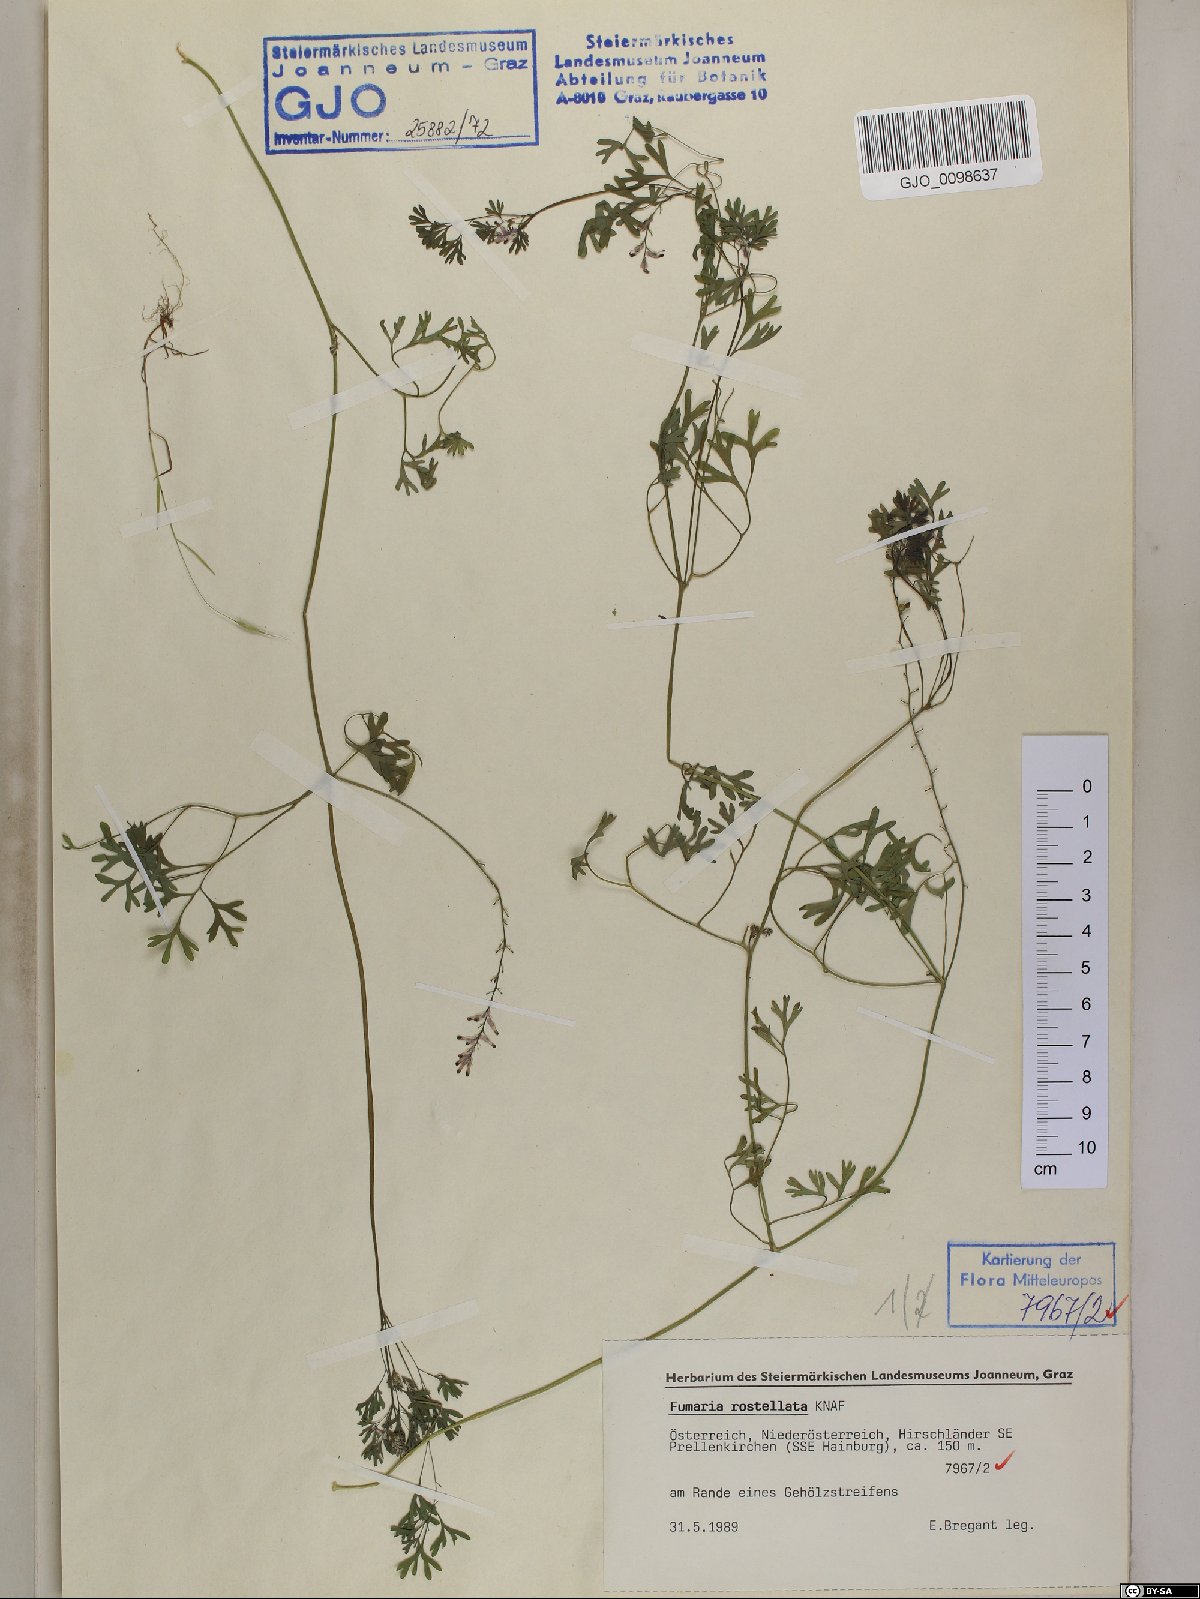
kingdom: Plantae
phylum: Tracheophyta
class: Magnoliopsida
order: Ranunculales
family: Papaveraceae
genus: Fumaria
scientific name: Fumaria rostellata
